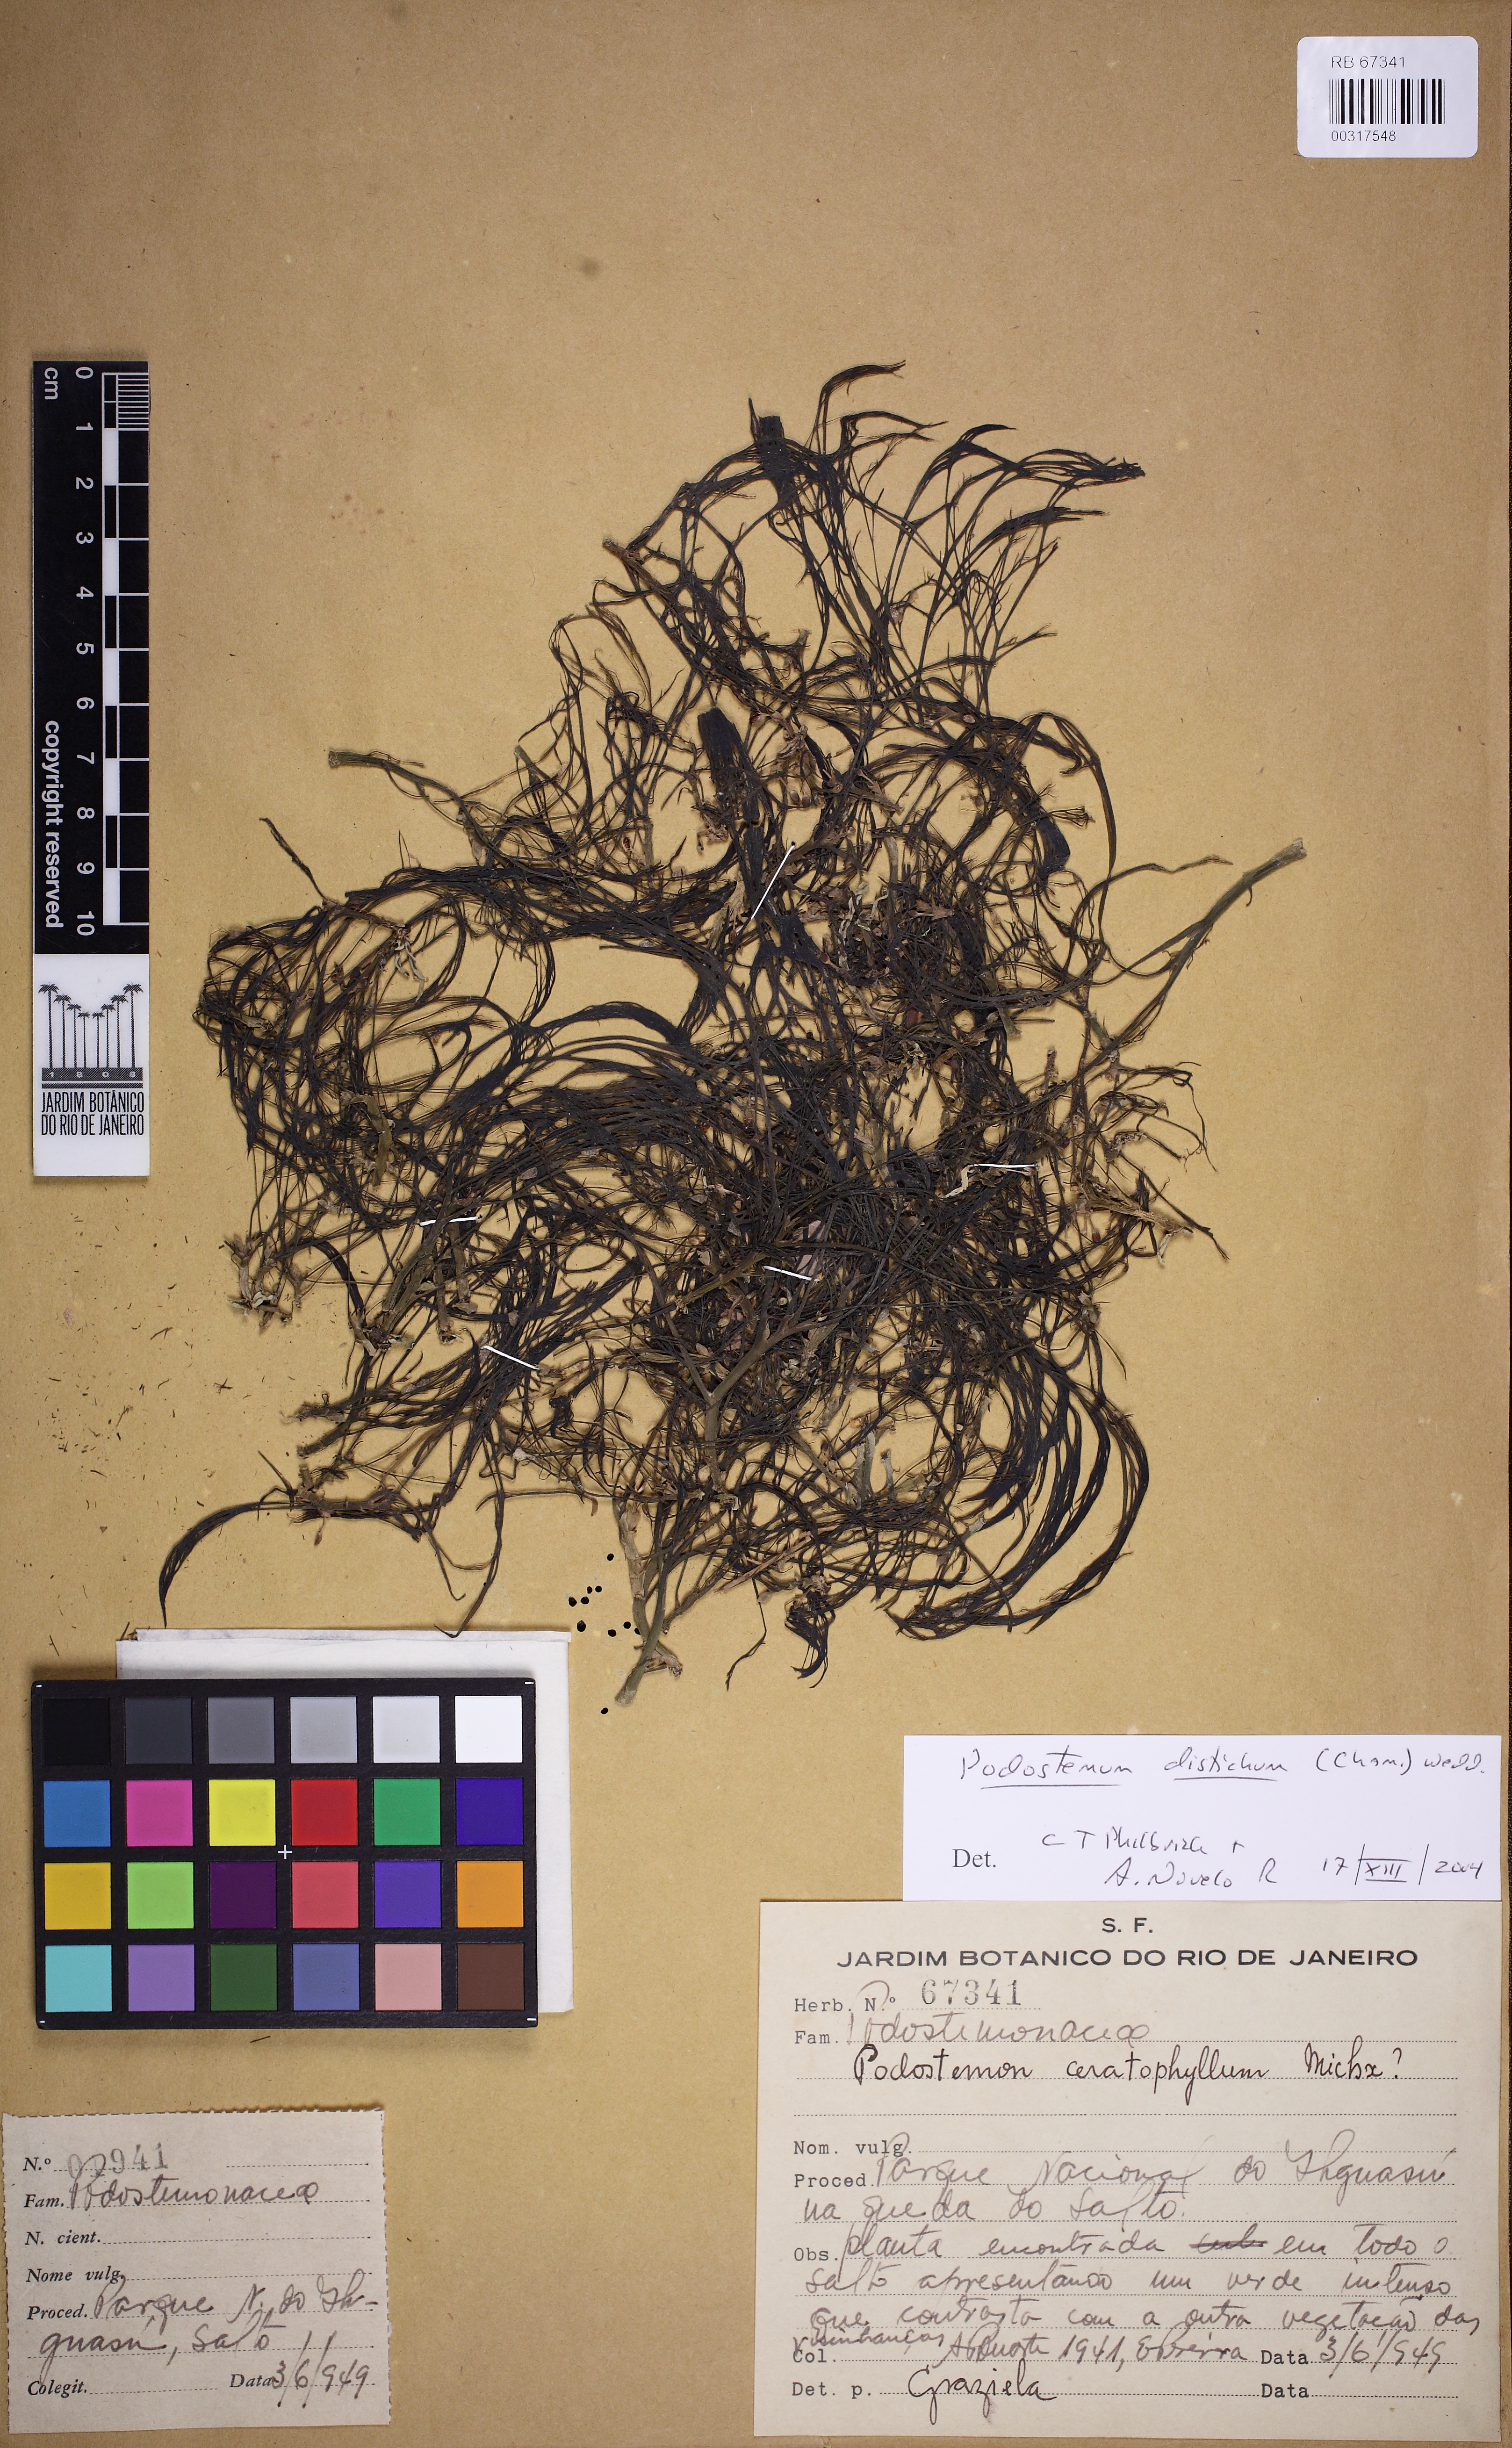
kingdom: Plantae
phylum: Tracheophyta
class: Magnoliopsida
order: Malpighiales
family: Podostemaceae
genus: Podostemum
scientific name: Podostemum distichum
